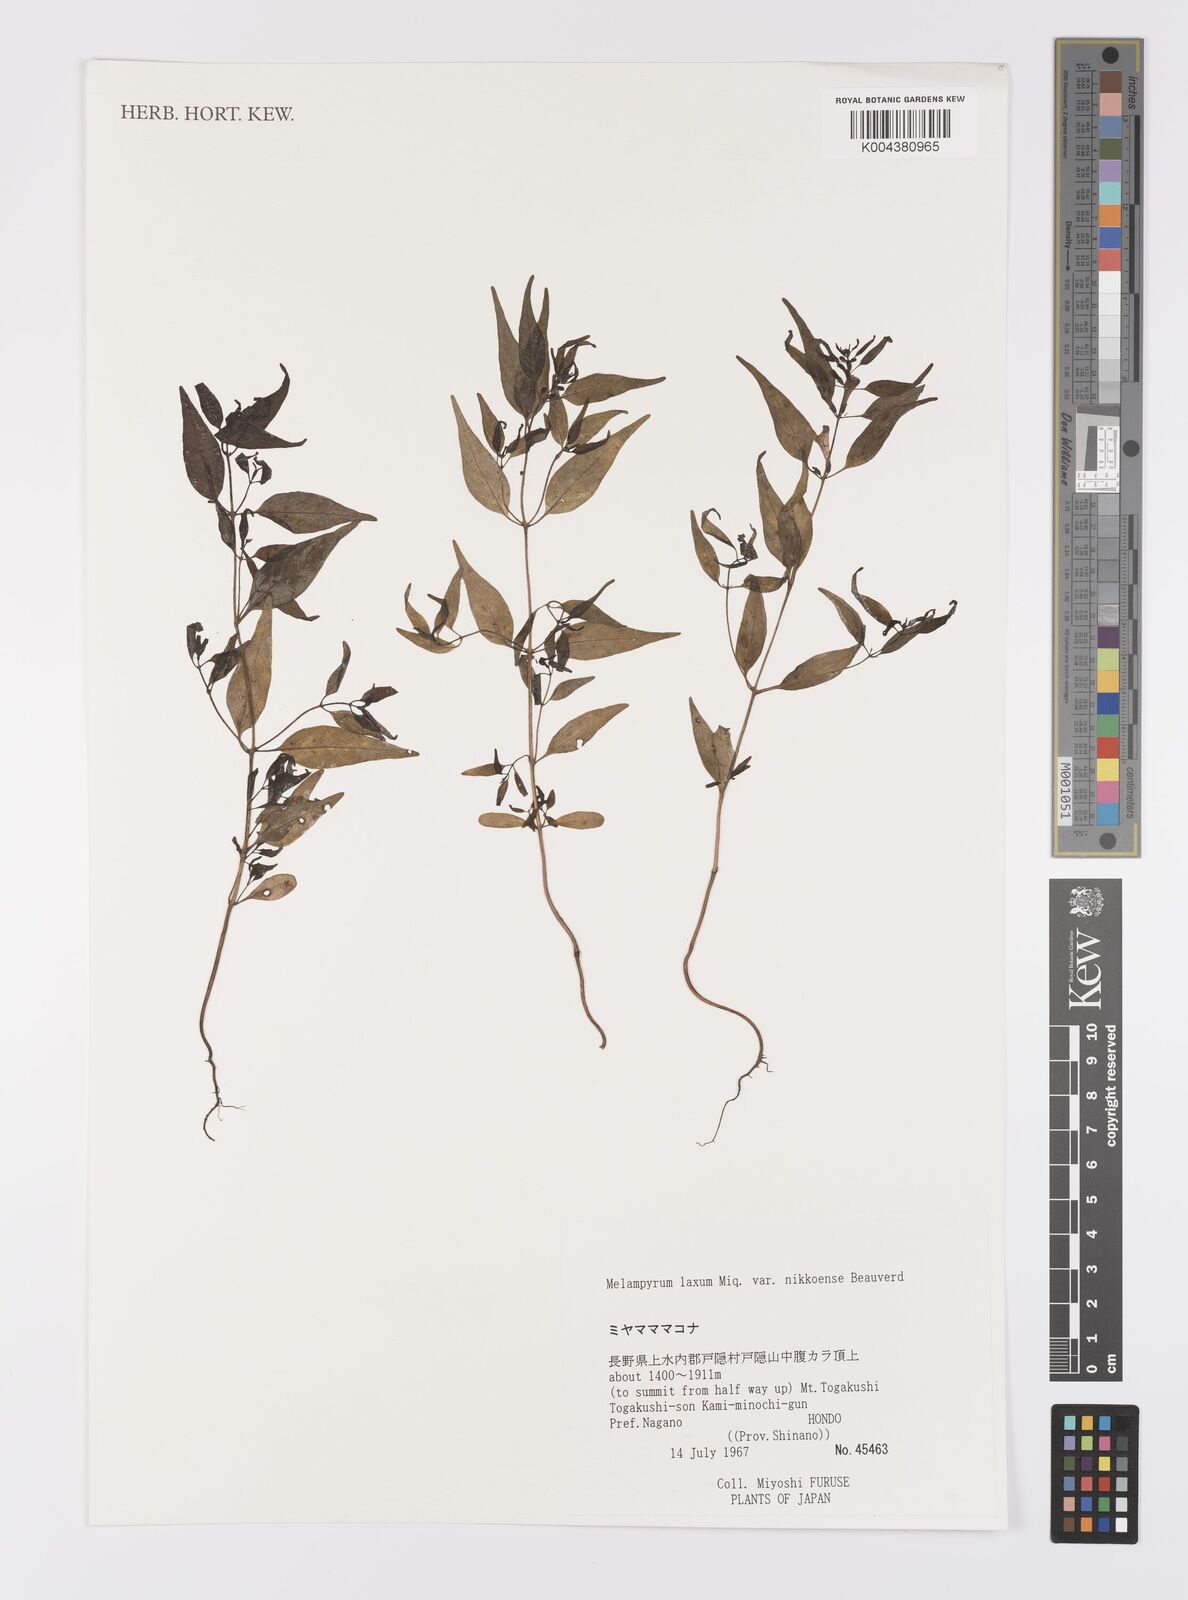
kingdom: Plantae
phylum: Tracheophyta
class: Magnoliopsida
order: Lamiales
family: Orobanchaceae
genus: Melampyrum
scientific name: Melampyrum laxum
